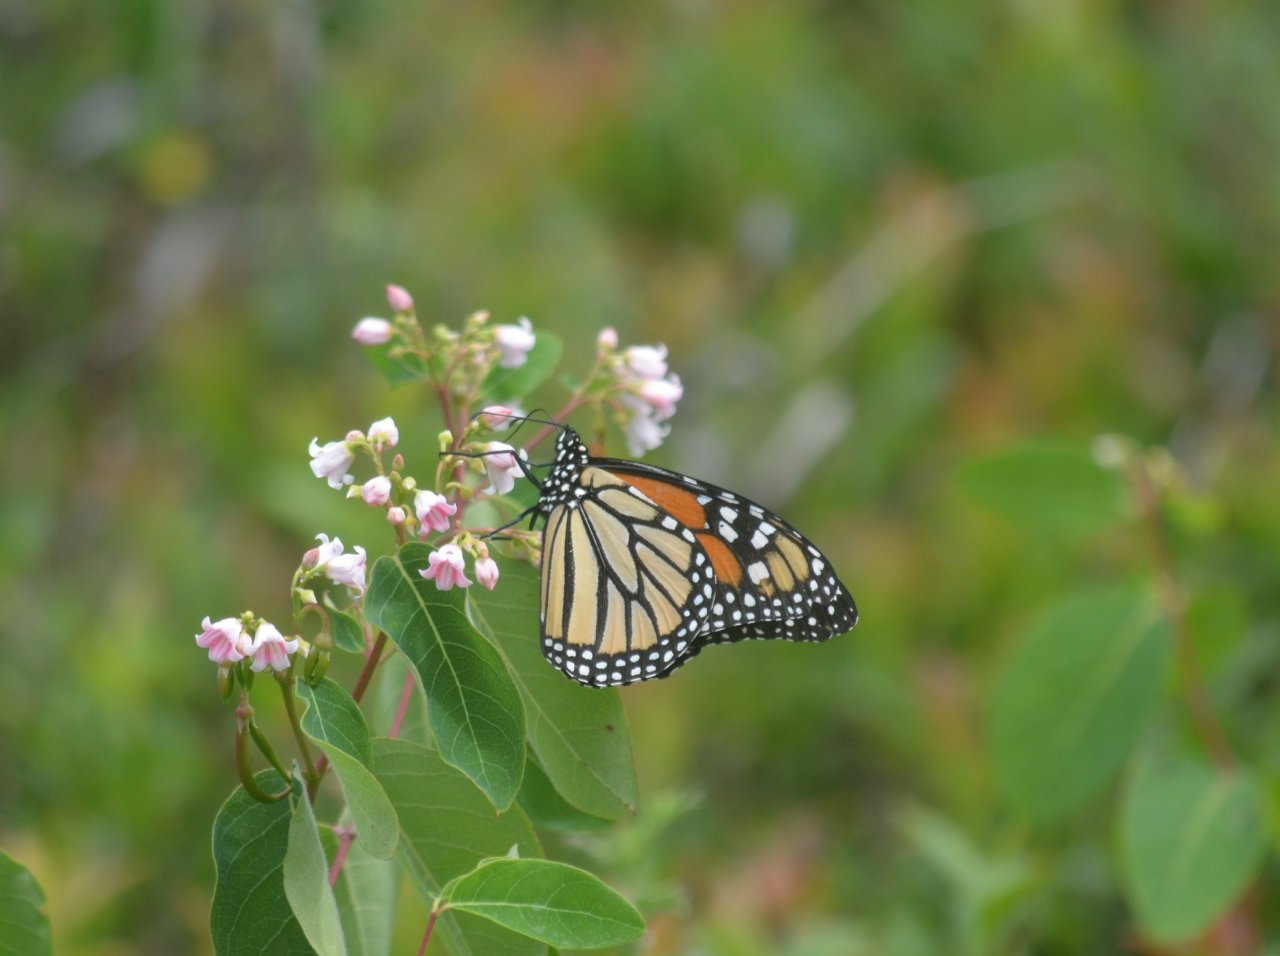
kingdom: Animalia
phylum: Arthropoda
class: Insecta
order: Lepidoptera
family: Nymphalidae
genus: Danaus
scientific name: Danaus plexippus
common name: Monarch
